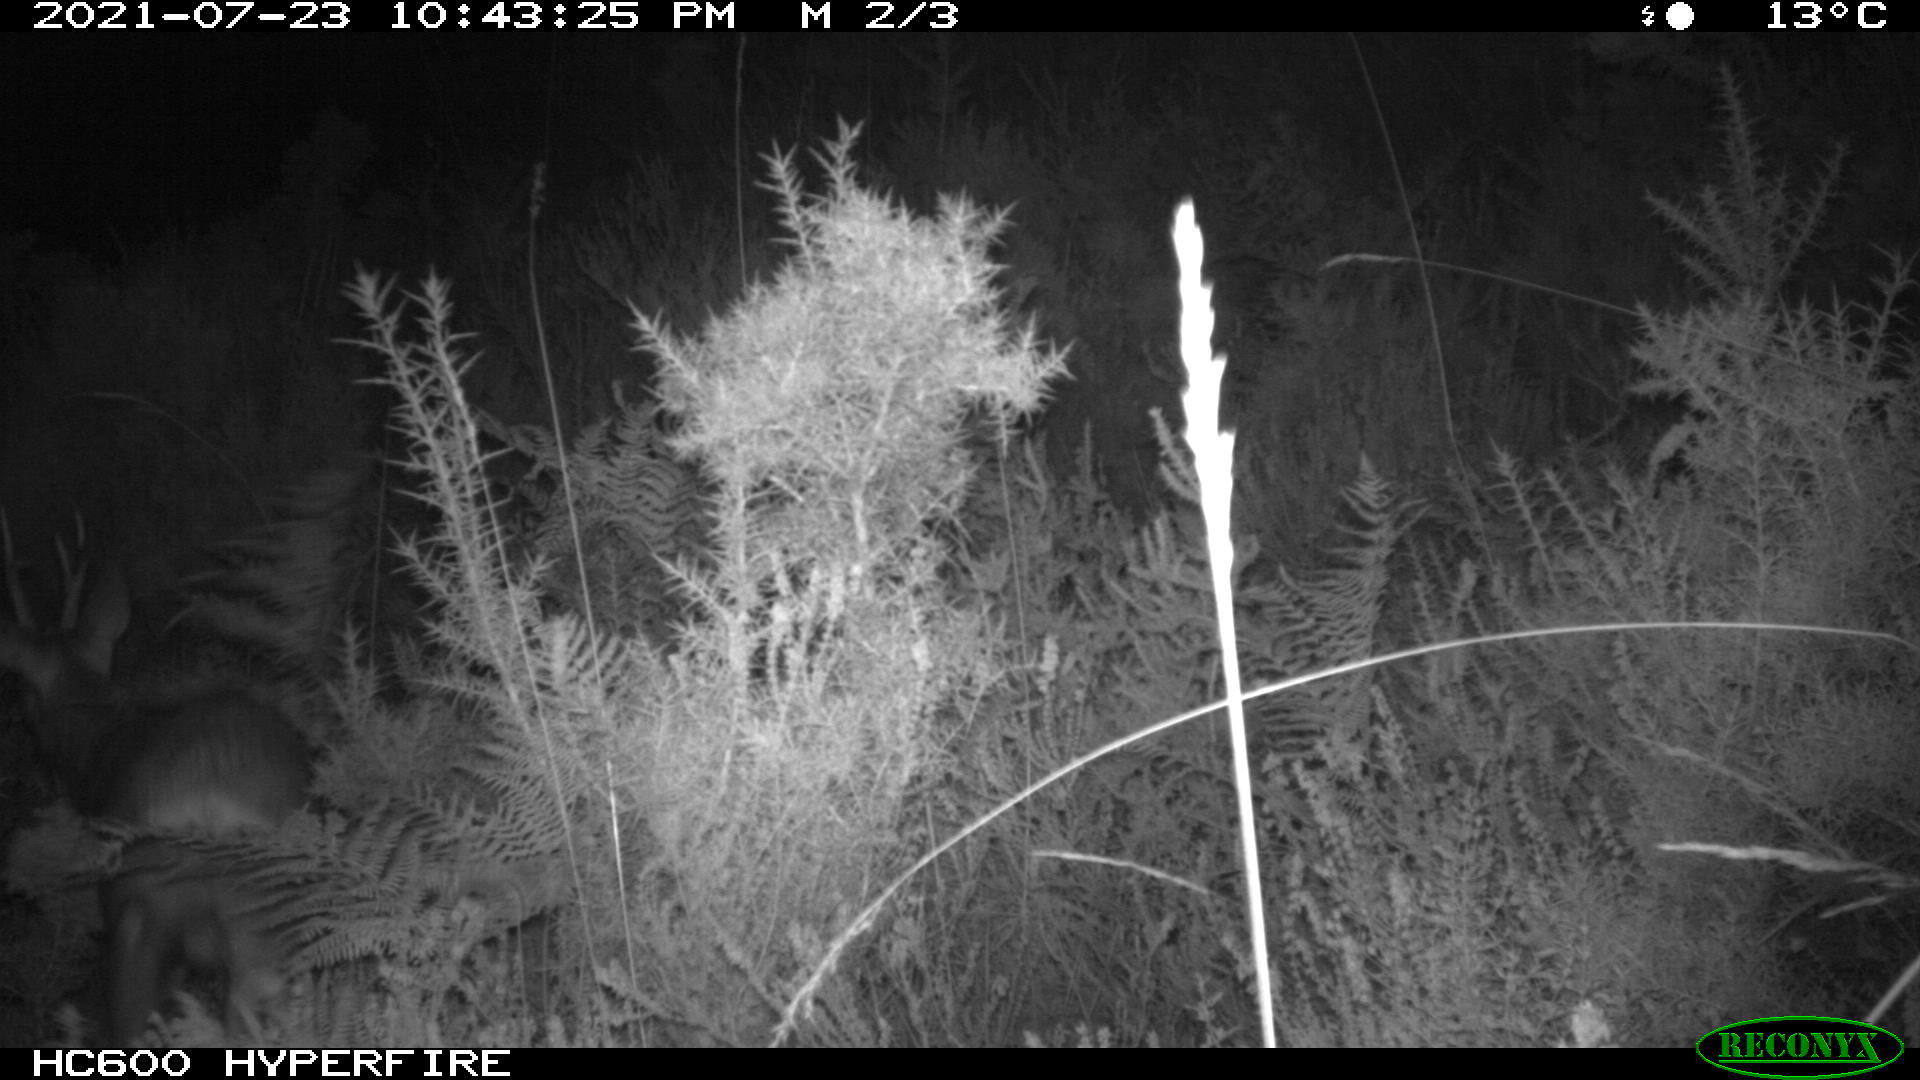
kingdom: Animalia
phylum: Chordata
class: Mammalia
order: Artiodactyla
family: Cervidae
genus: Capreolus
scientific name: Capreolus capreolus
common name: Western roe deer
